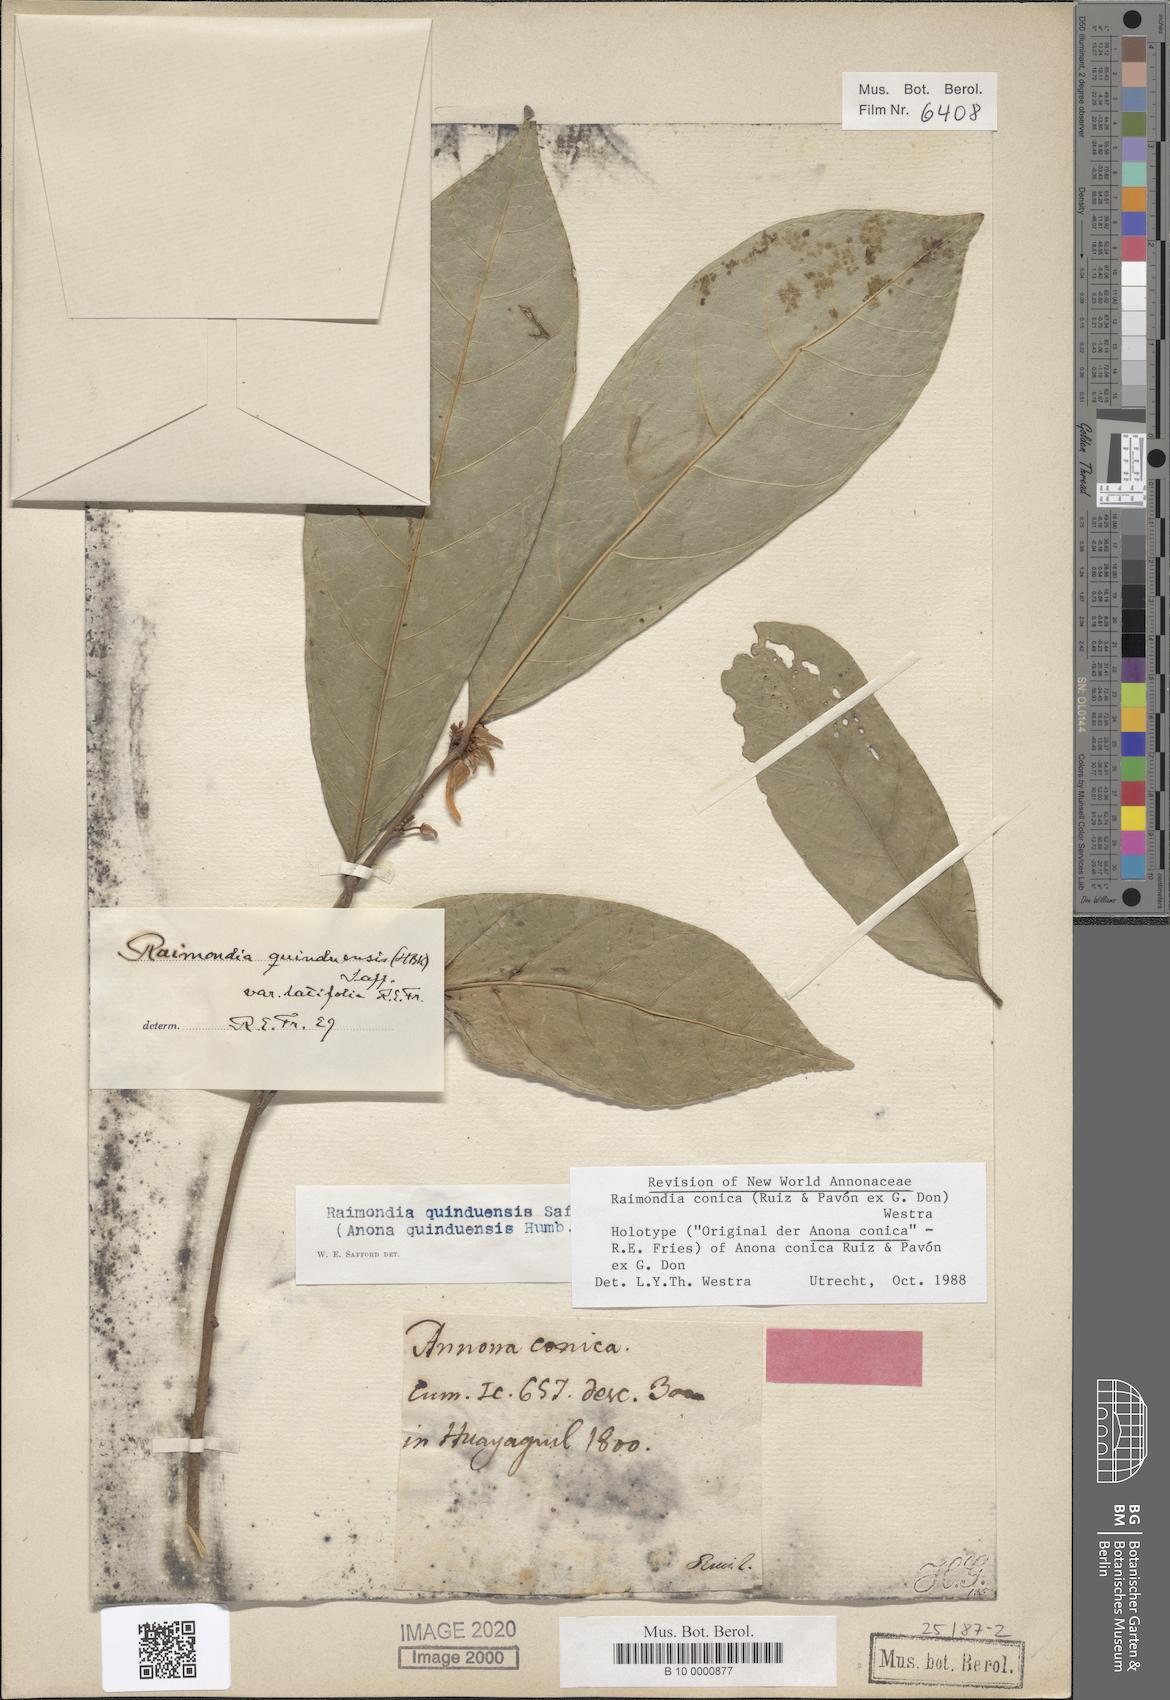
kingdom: Plantae
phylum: Tracheophyta
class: Magnoliopsida
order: Magnoliales
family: Annonaceae
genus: Annona
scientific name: Annona conica
